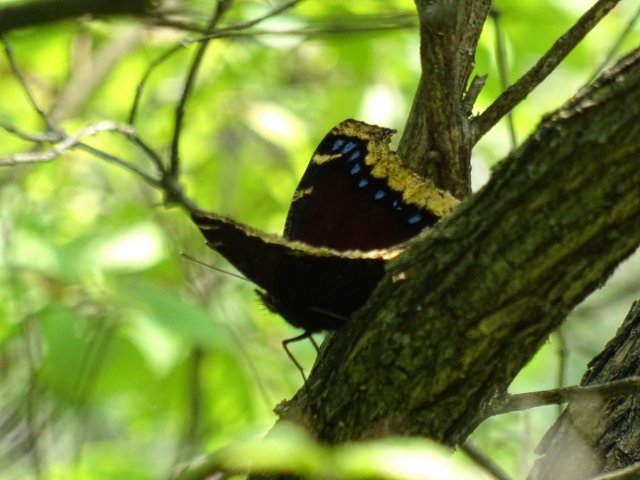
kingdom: Animalia
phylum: Arthropoda
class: Insecta
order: Lepidoptera
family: Nymphalidae
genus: Nymphalis
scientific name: Nymphalis antiopa
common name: Mourning Cloak
